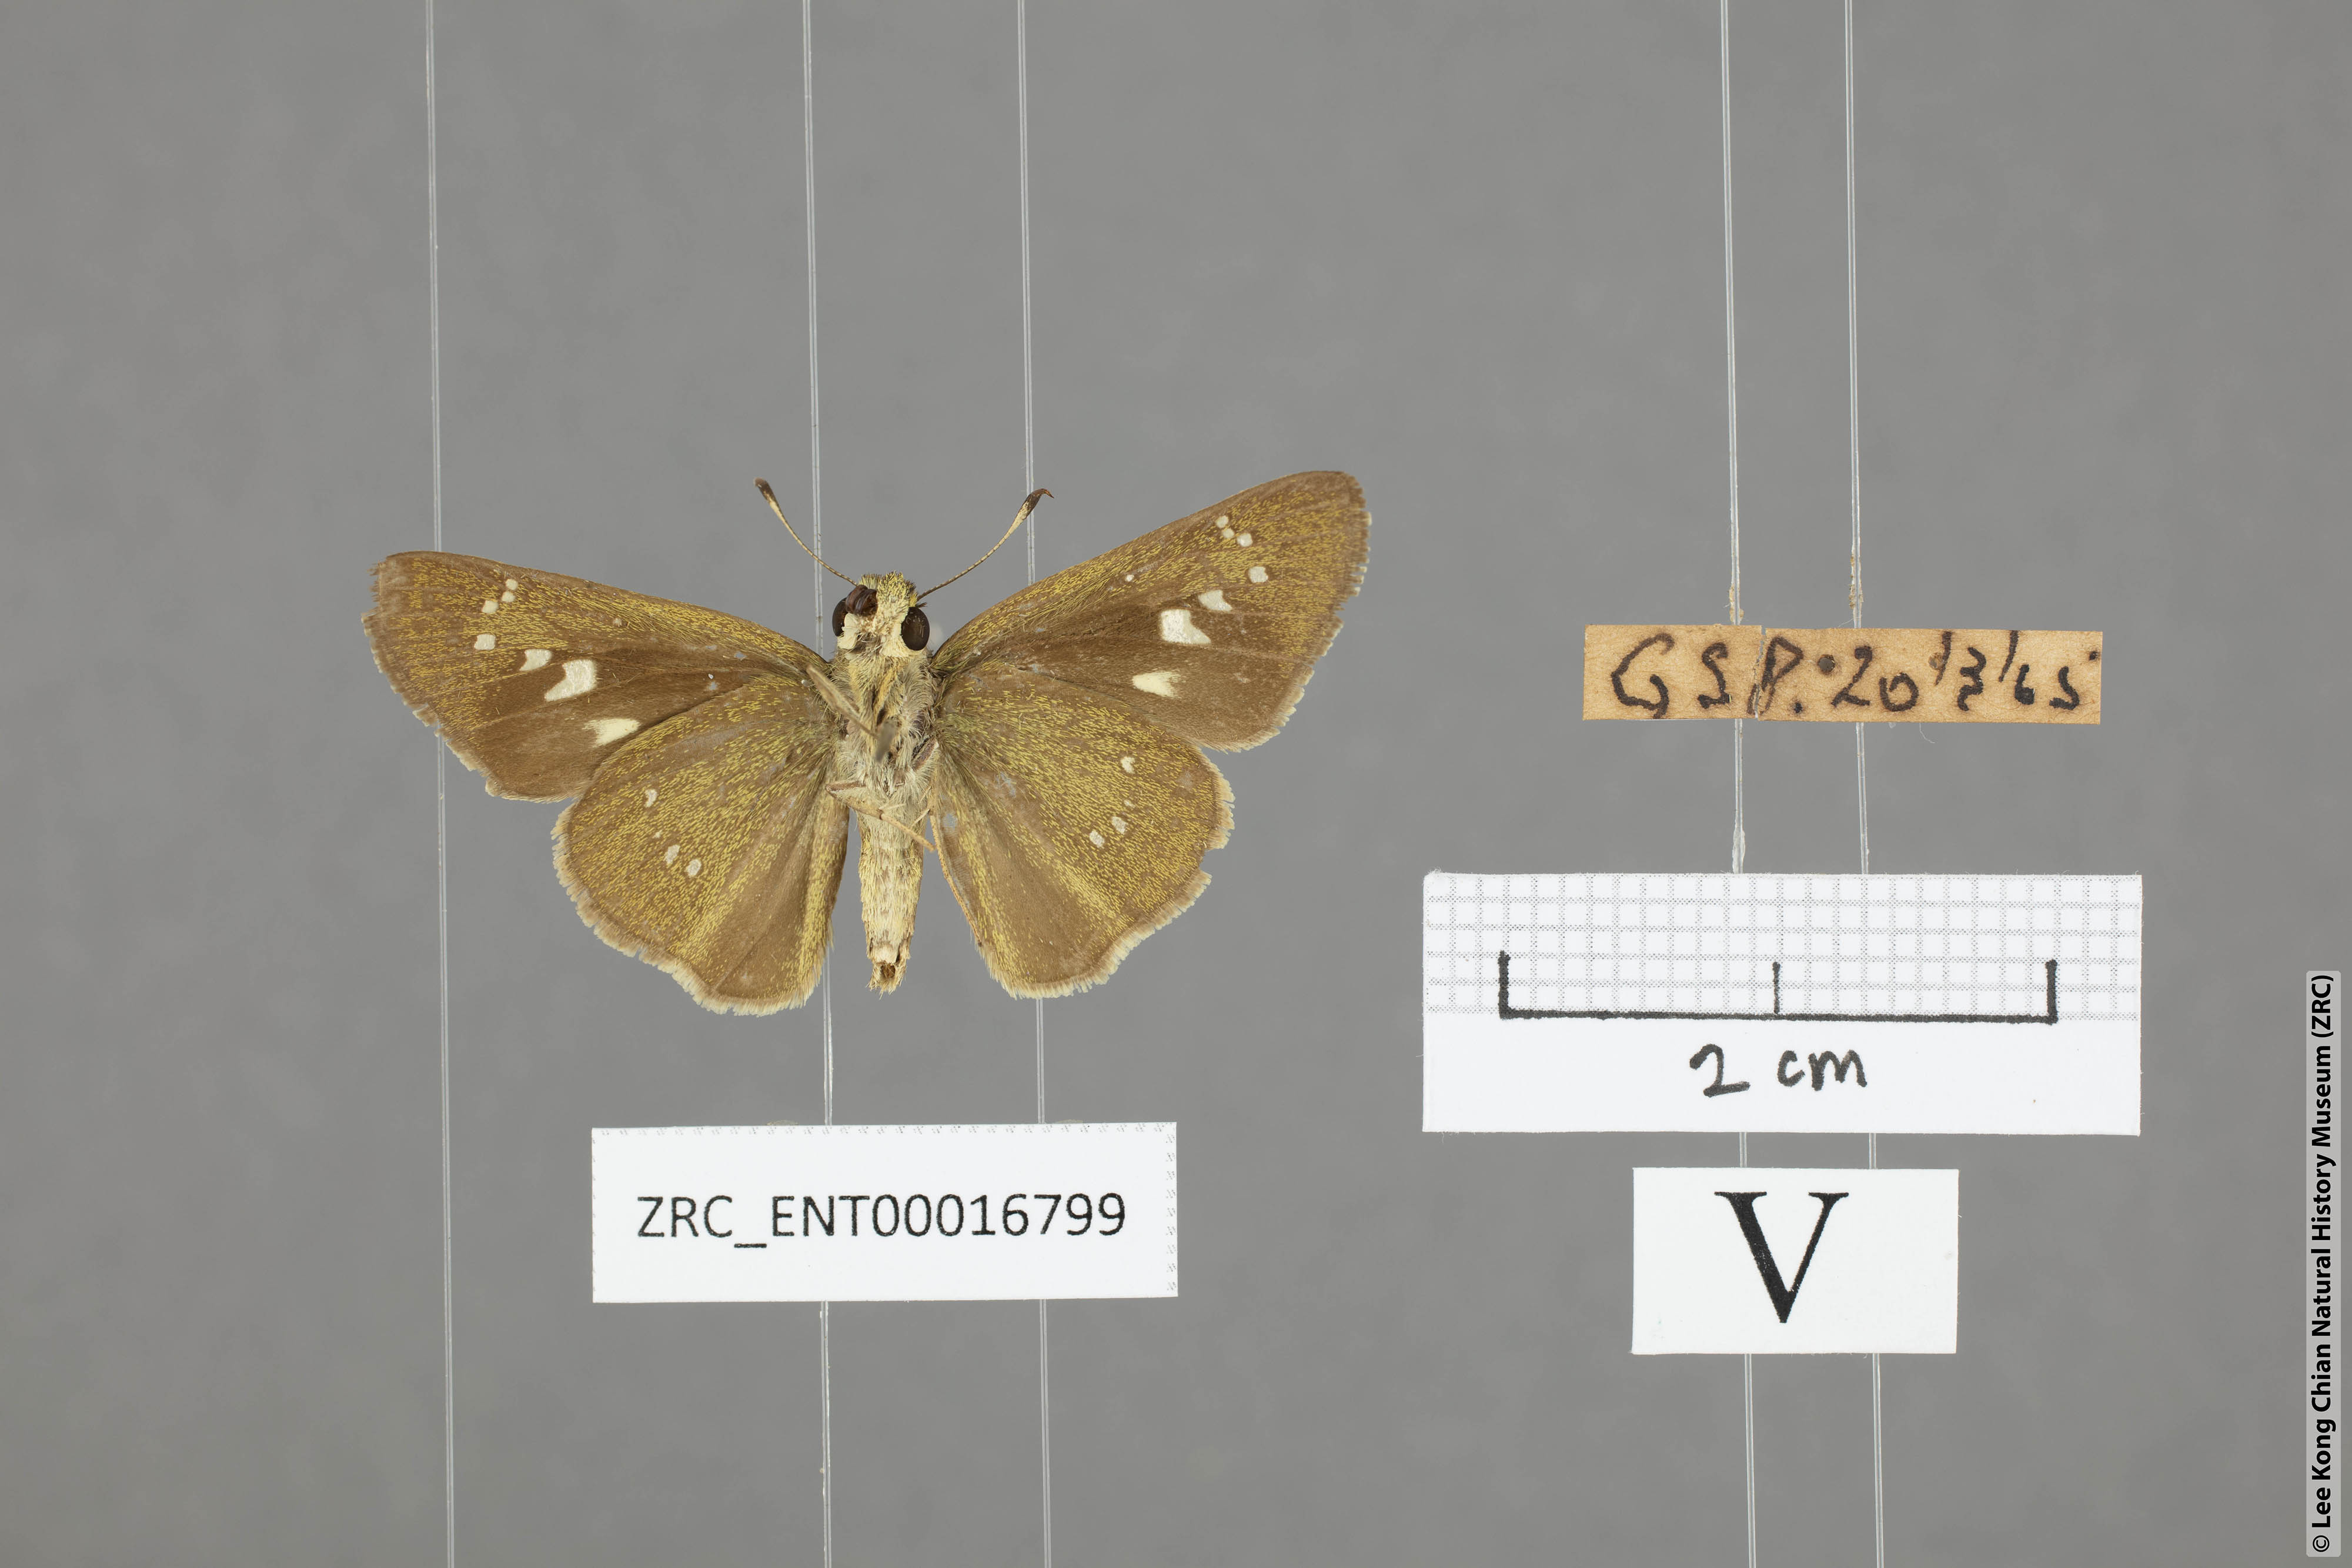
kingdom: Animalia
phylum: Arthropoda
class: Insecta
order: Lepidoptera
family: Hesperiidae
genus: Borbo
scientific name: Borbo cinnara
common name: Formosan swift
